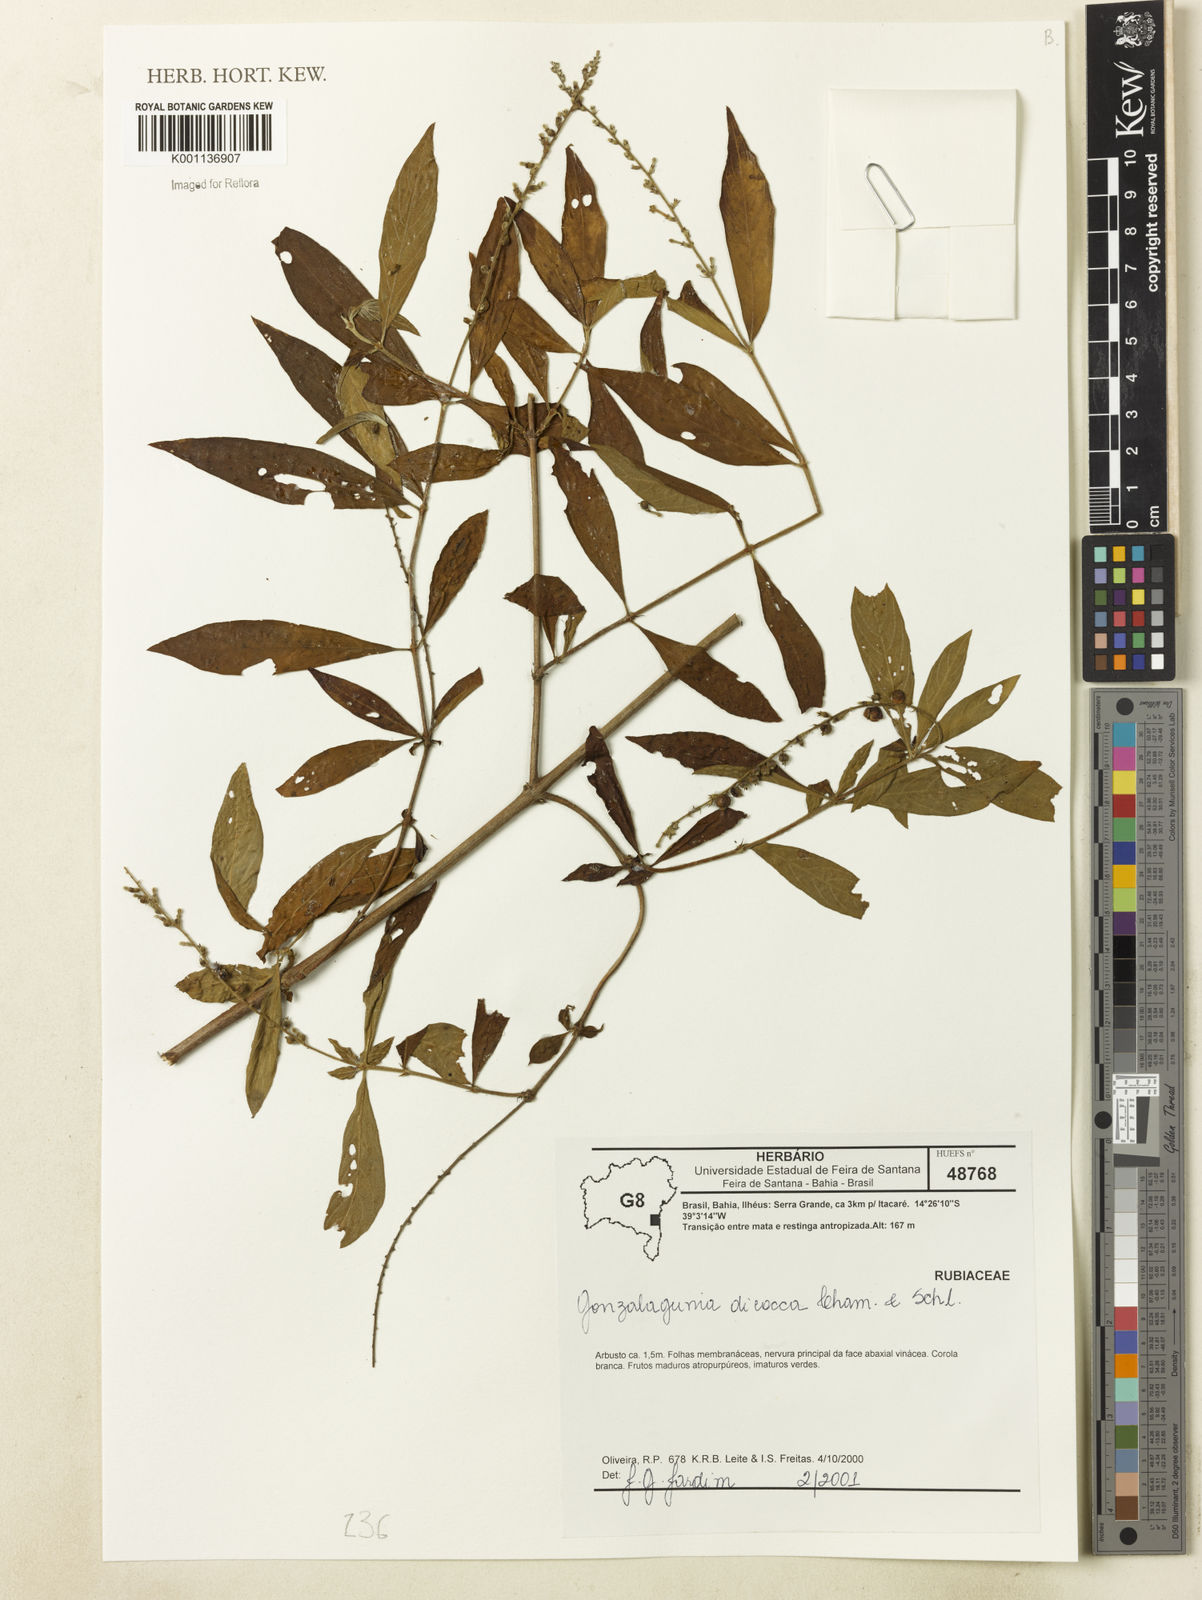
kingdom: Plantae
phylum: Tracheophyta
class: Magnoliopsida
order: Gentianales
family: Rubiaceae
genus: Gonzalagunia
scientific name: Gonzalagunia dicocca
